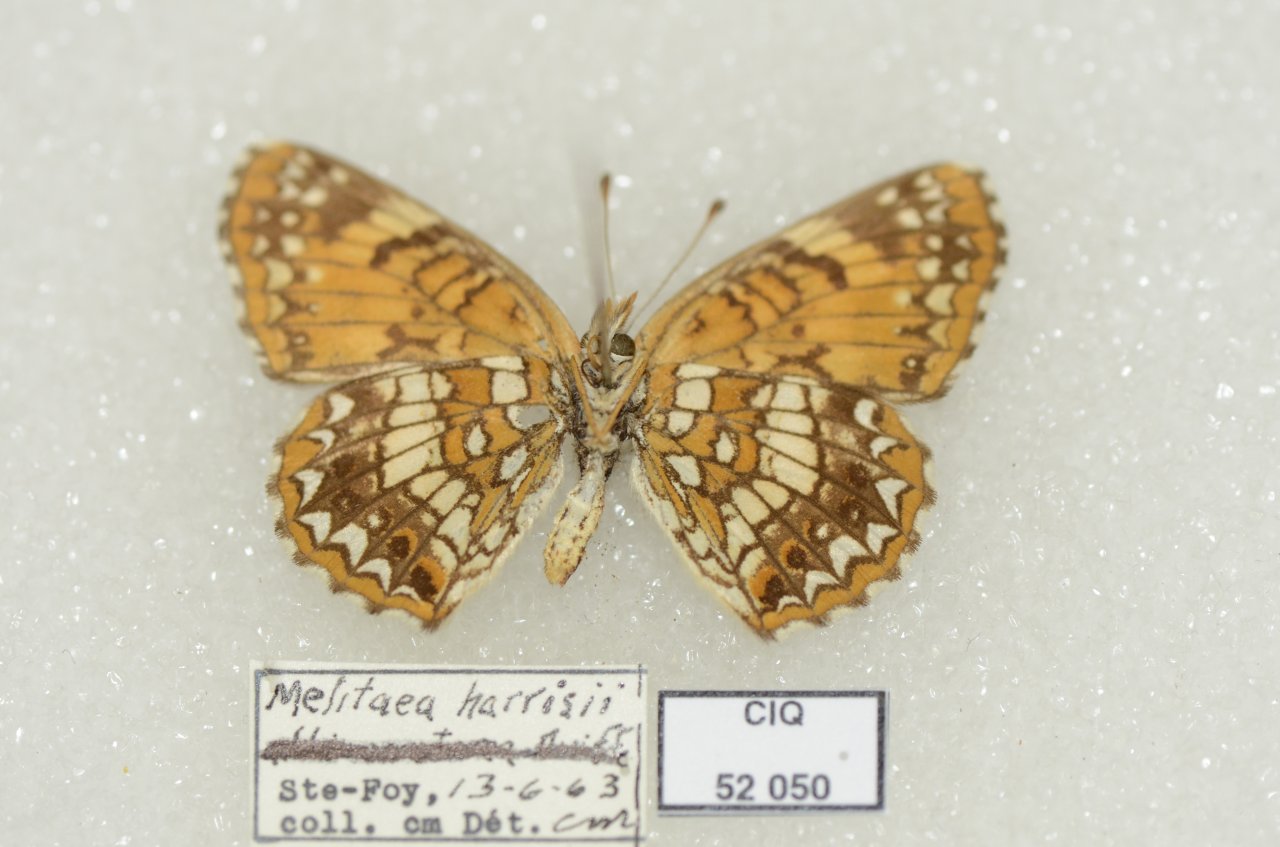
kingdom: Animalia
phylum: Arthropoda
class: Insecta
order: Lepidoptera
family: Nymphalidae
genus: Chlosyne
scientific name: Chlosyne harrisii
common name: Harris's Checkerspot
